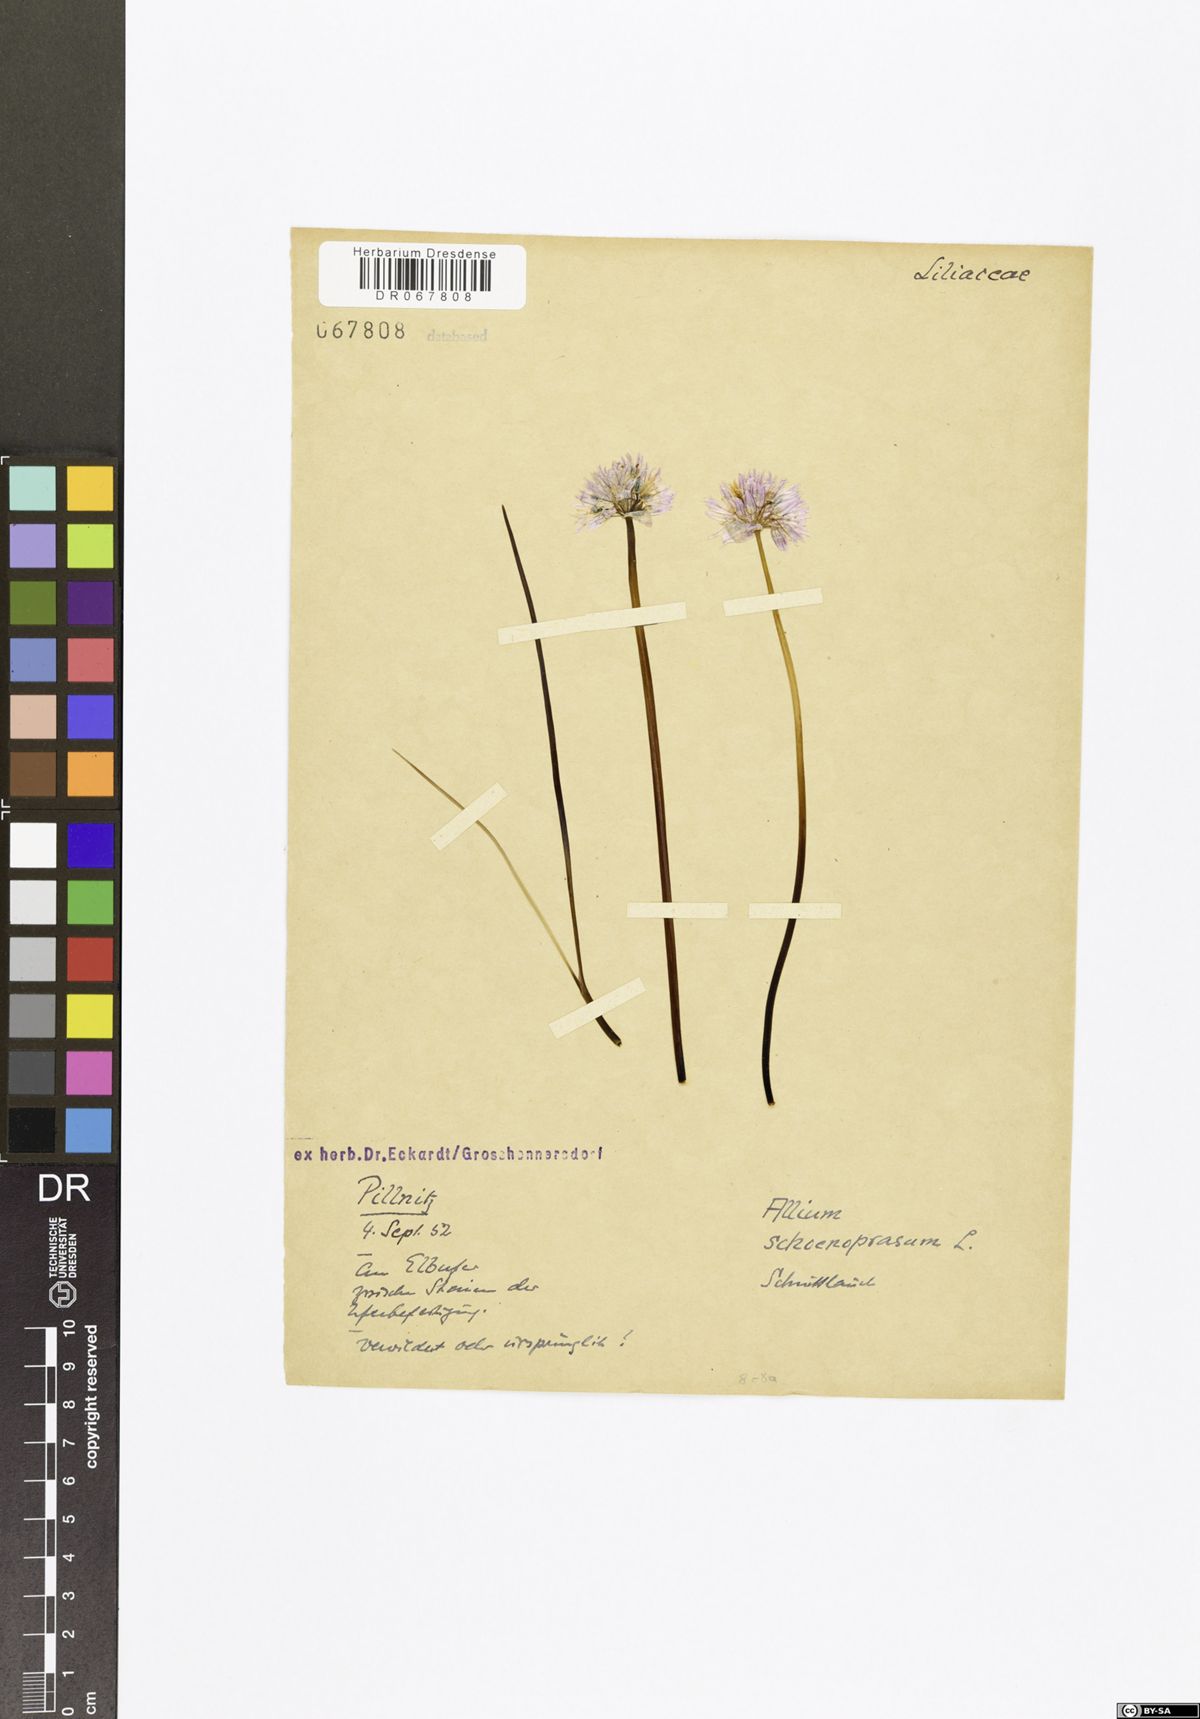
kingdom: Plantae
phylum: Tracheophyta
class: Liliopsida
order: Asparagales
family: Amaryllidaceae
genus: Allium
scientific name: Allium schoenoprasum
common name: Chives
